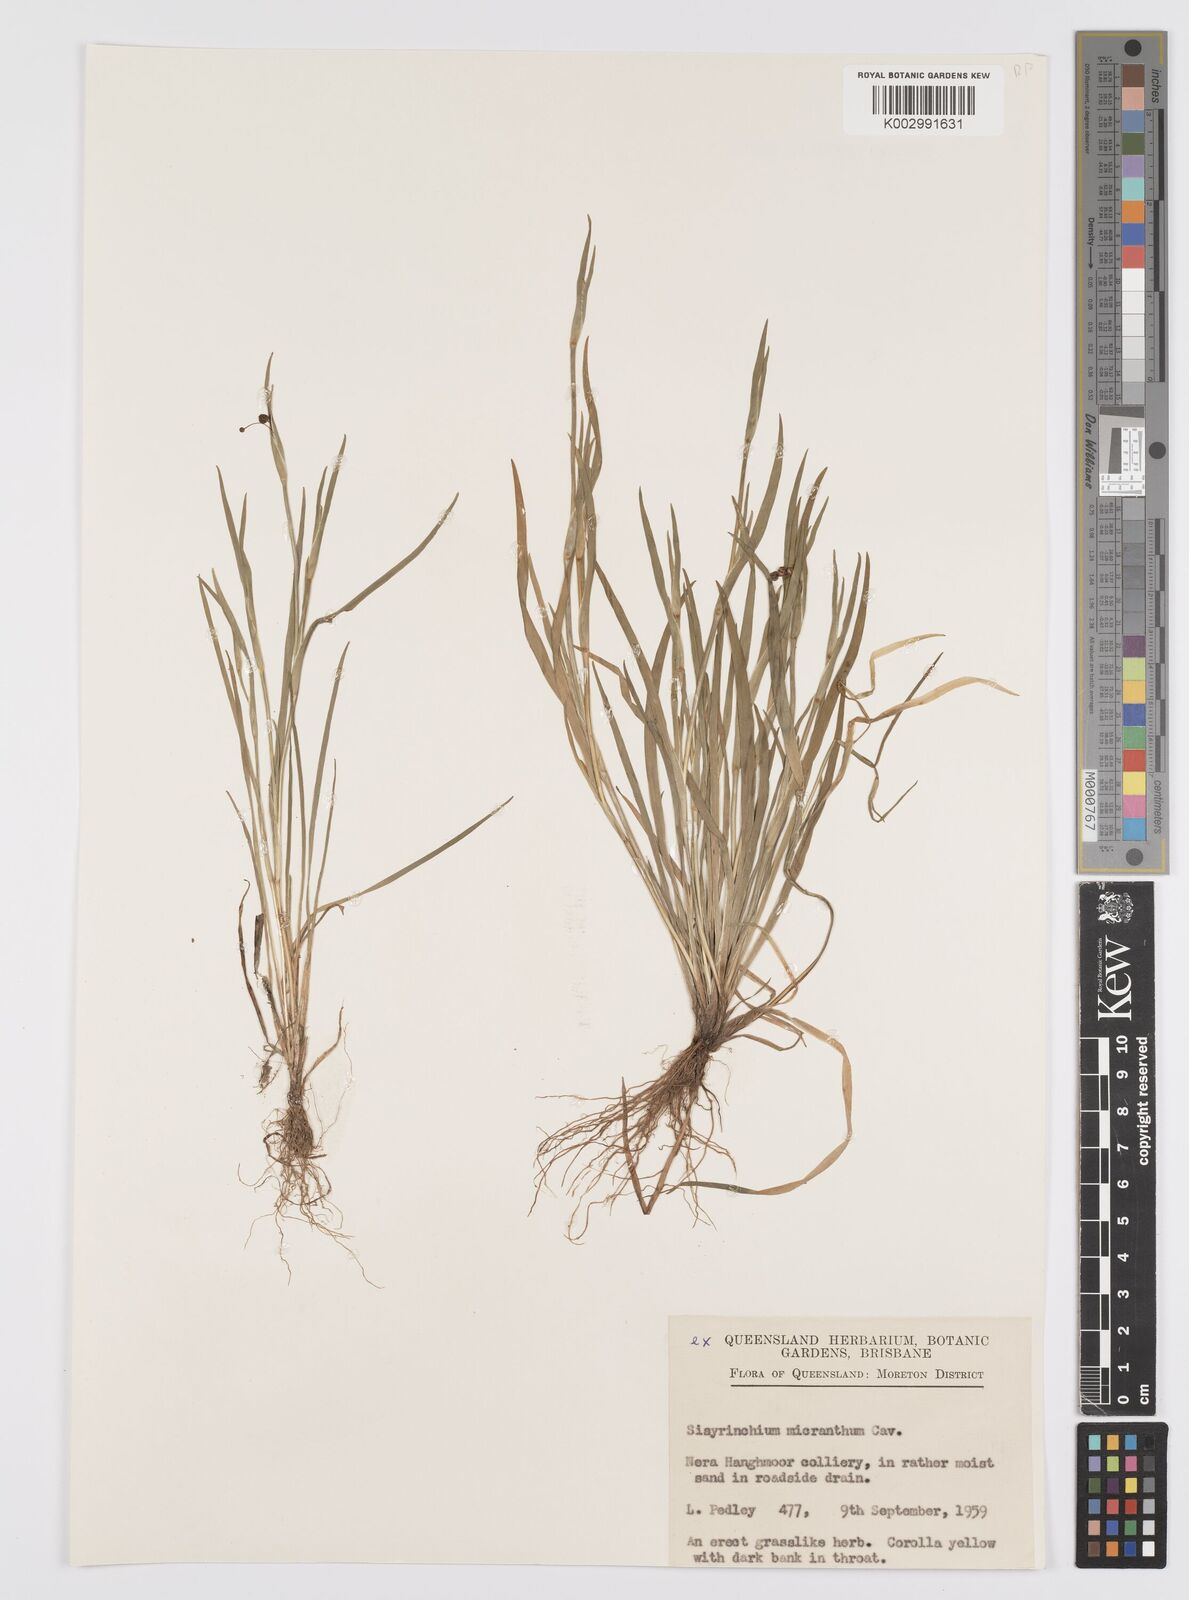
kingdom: Plantae
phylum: Tracheophyta
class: Liliopsida
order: Asparagales
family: Iridaceae
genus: Sisyrinchium
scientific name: Sisyrinchium micranthum
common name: Bermuda pigroot
